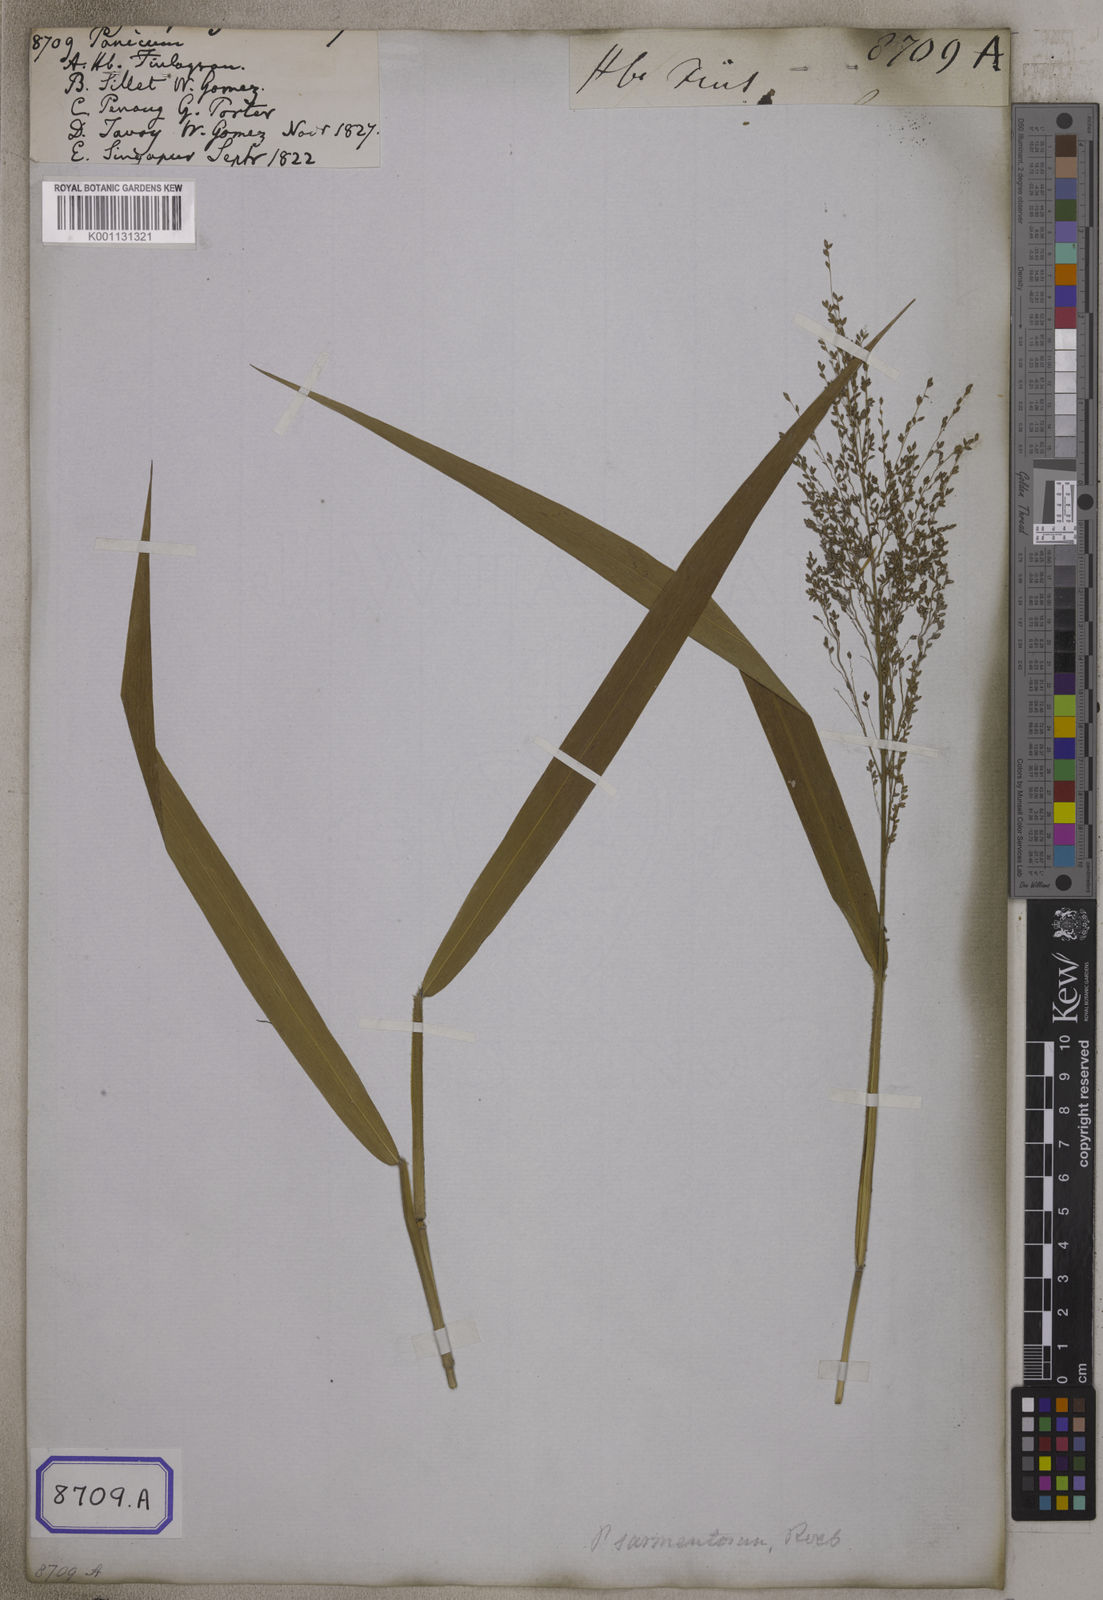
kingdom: Plantae
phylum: Tracheophyta
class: Liliopsida
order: Poales
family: Poaceae
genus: Panicum
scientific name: Panicum
